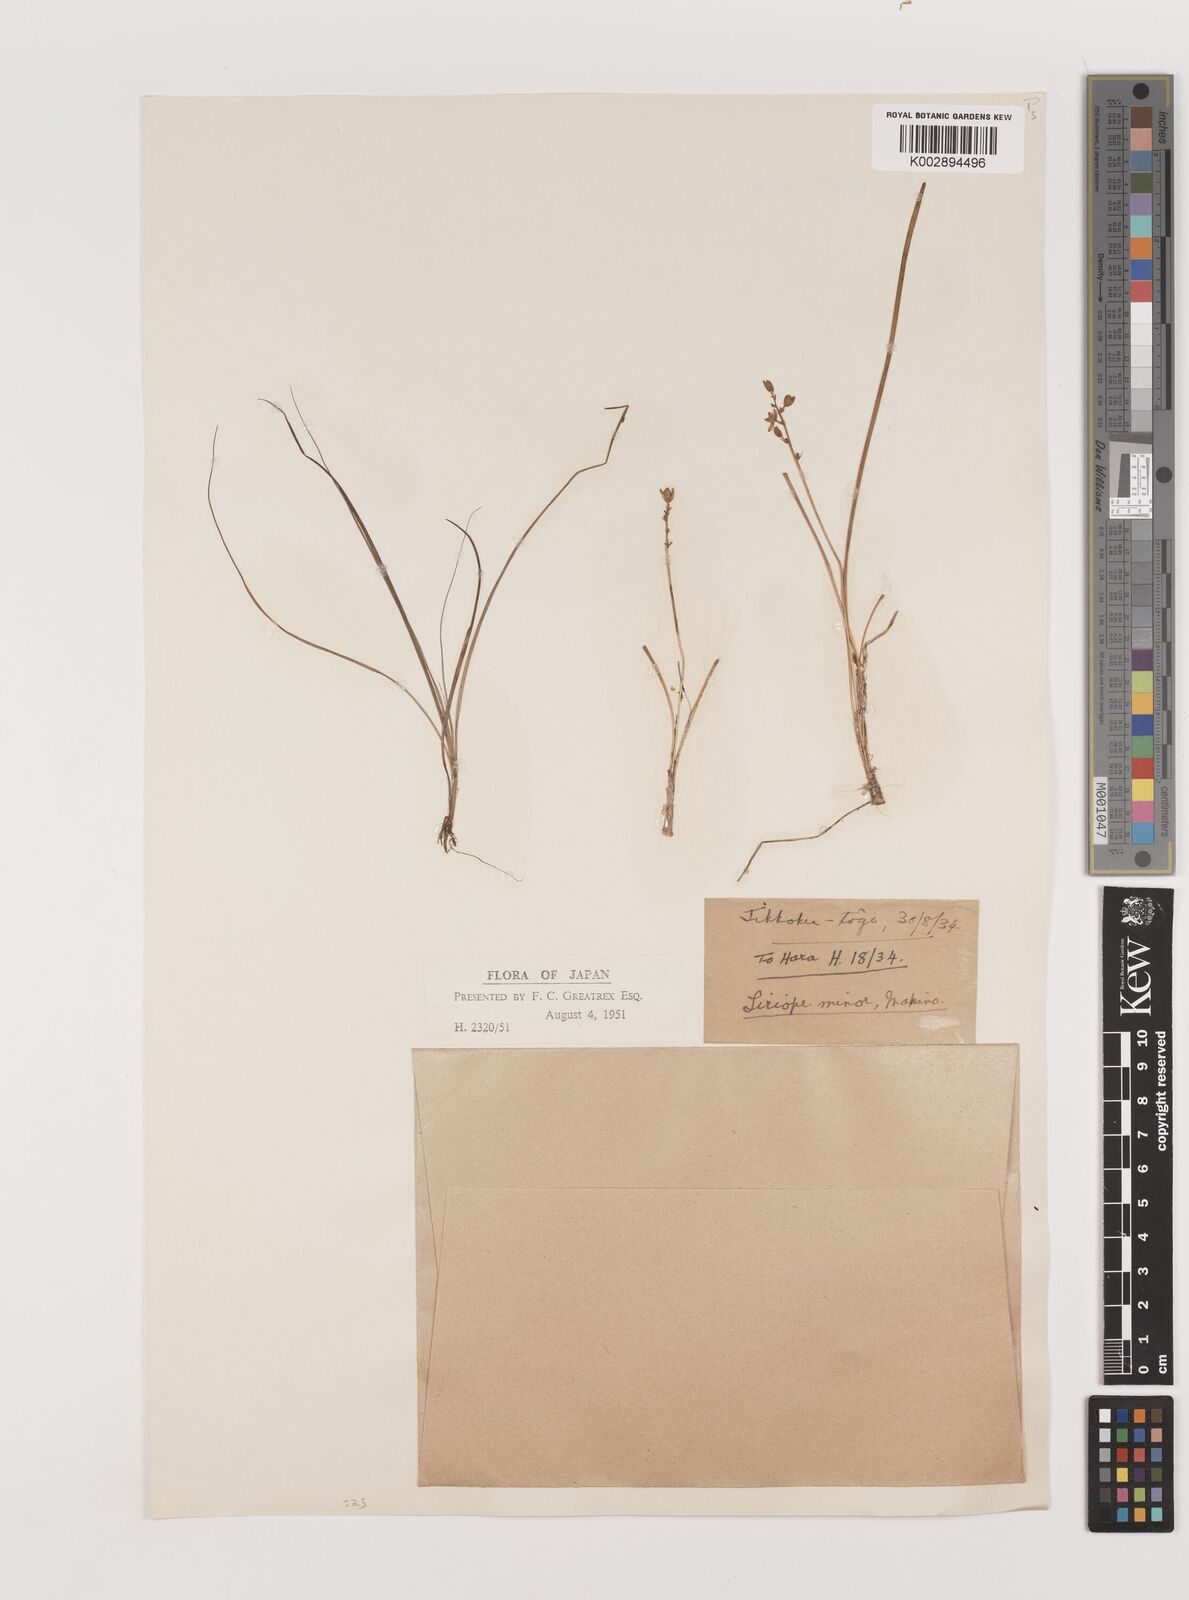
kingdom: Plantae
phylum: Tracheophyta
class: Liliopsida
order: Asparagales
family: Asparagaceae
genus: Liriope
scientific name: Liriope minor
